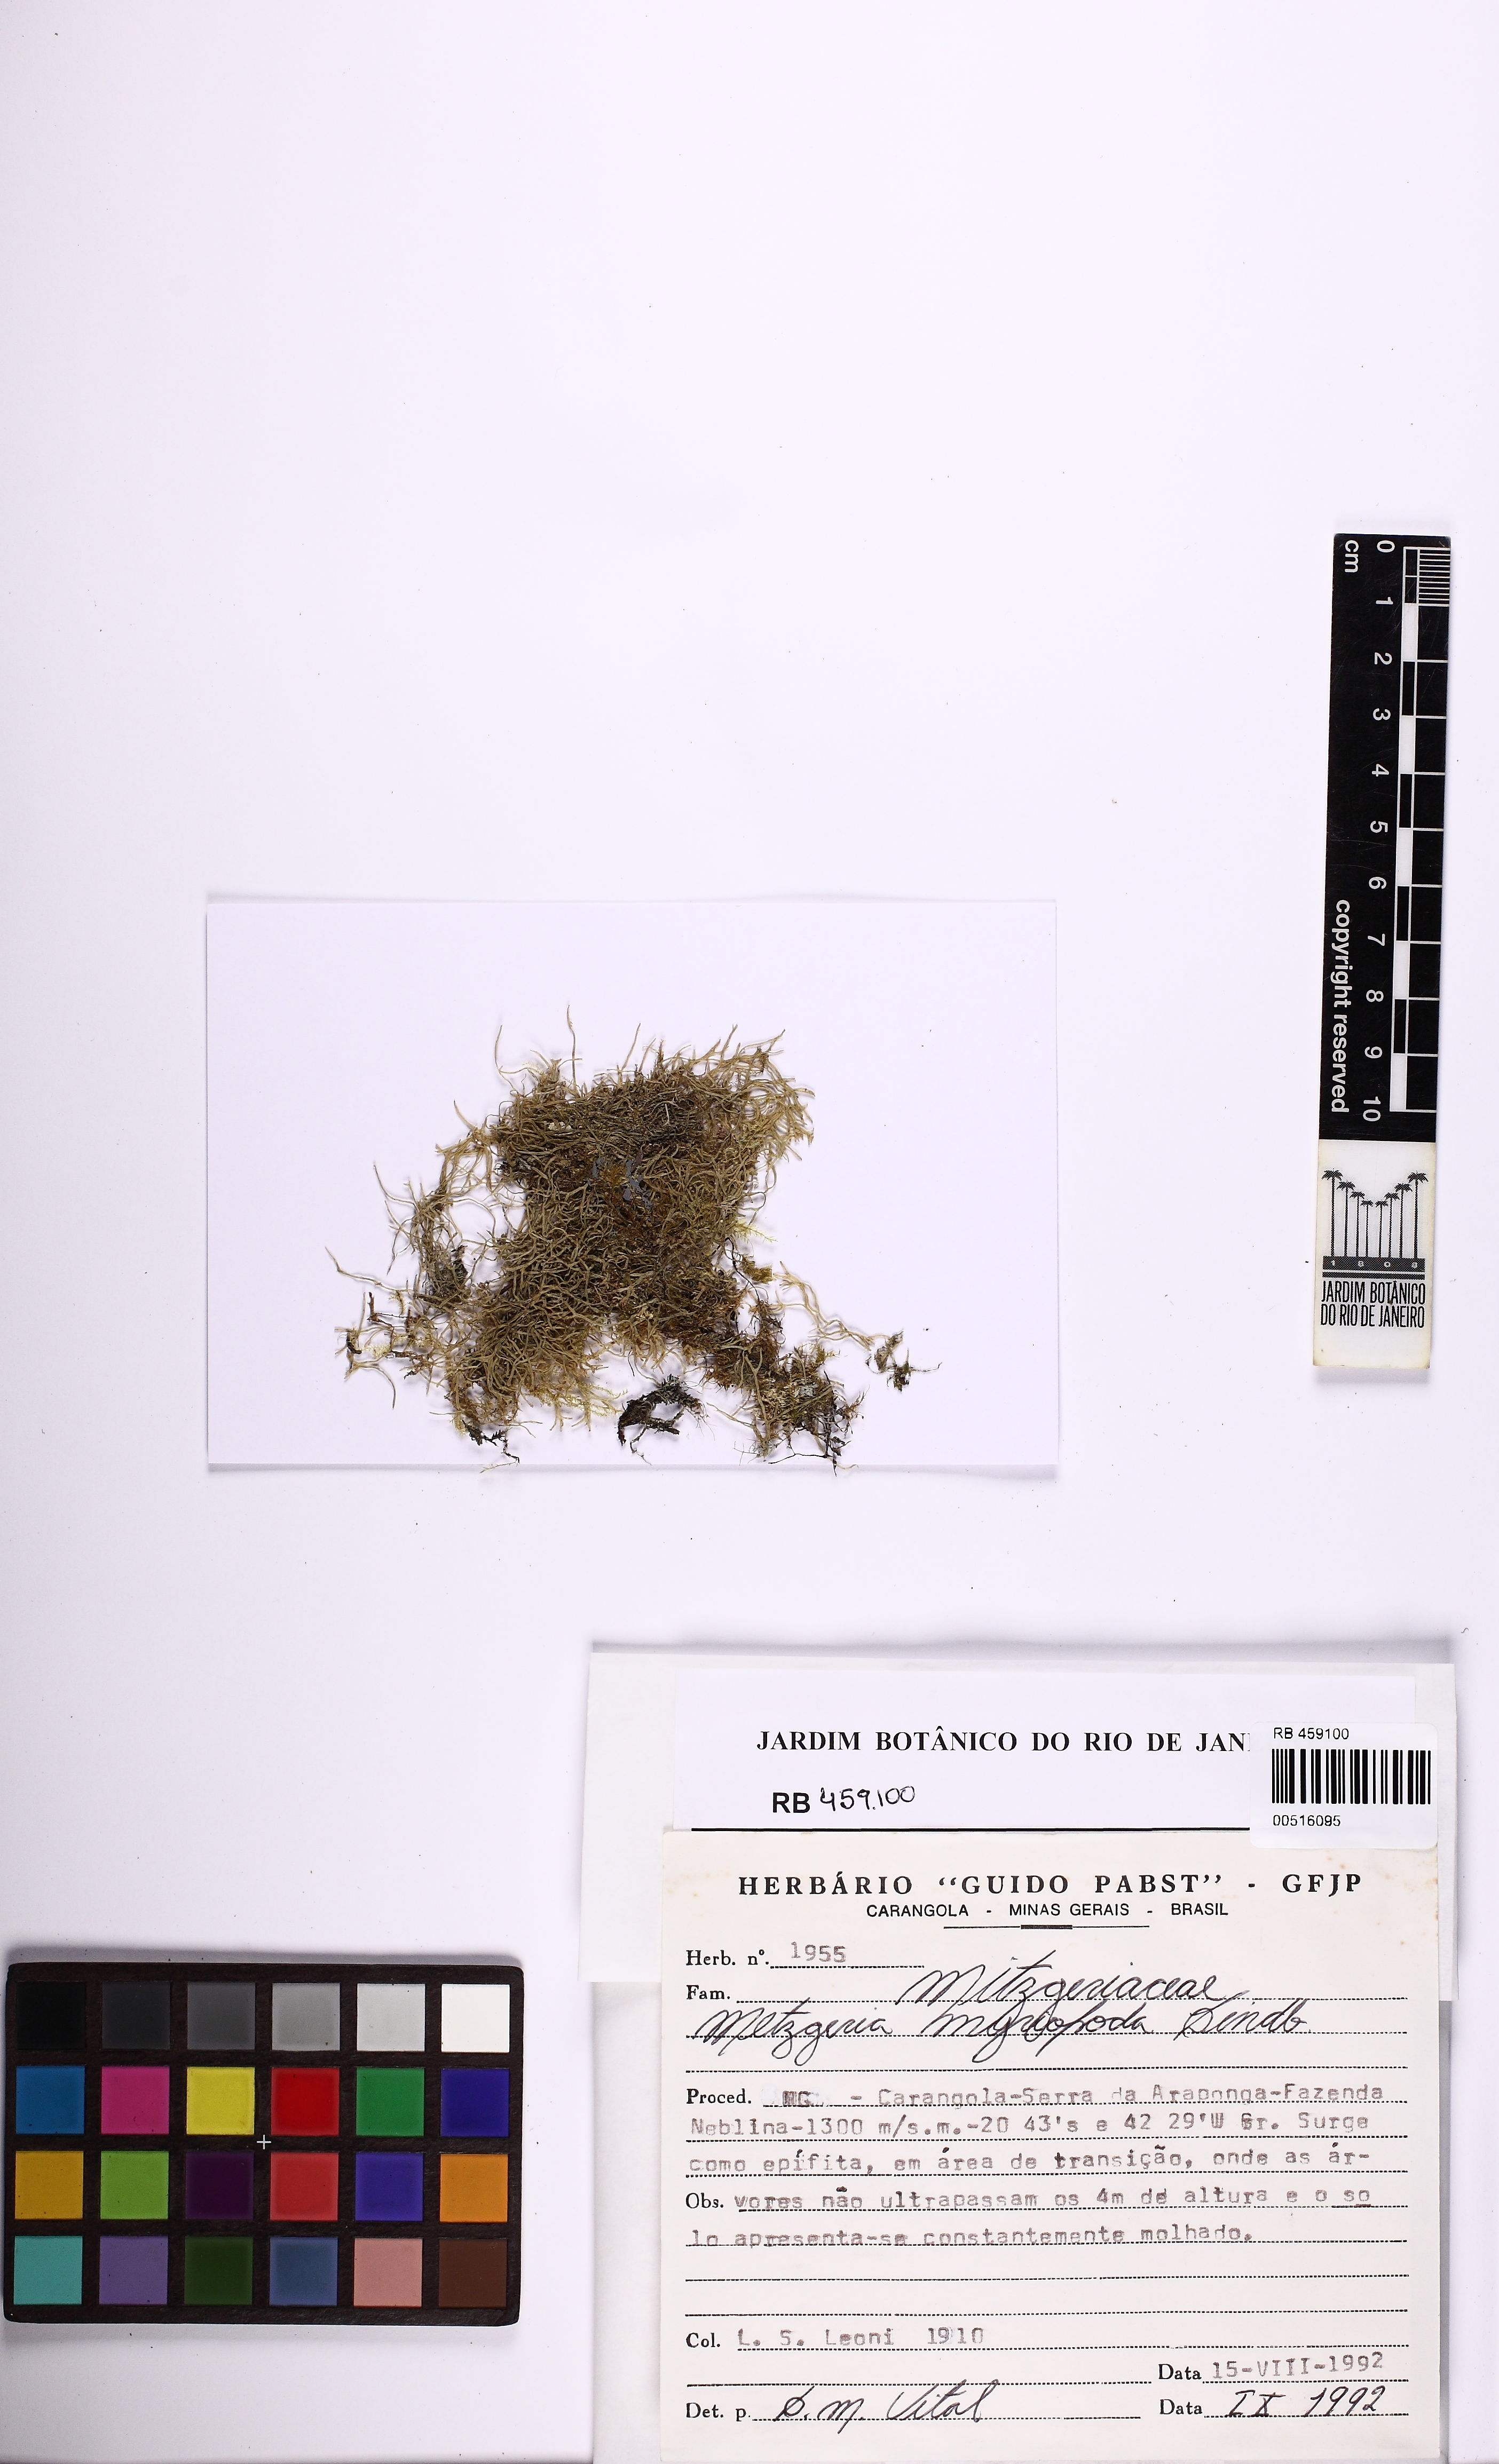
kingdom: Plantae
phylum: Marchantiophyta
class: Jungermanniopsida
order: Metzgeriales
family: Metzgeriaceae
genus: Metzgeria
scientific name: Metzgeria myriopoda
